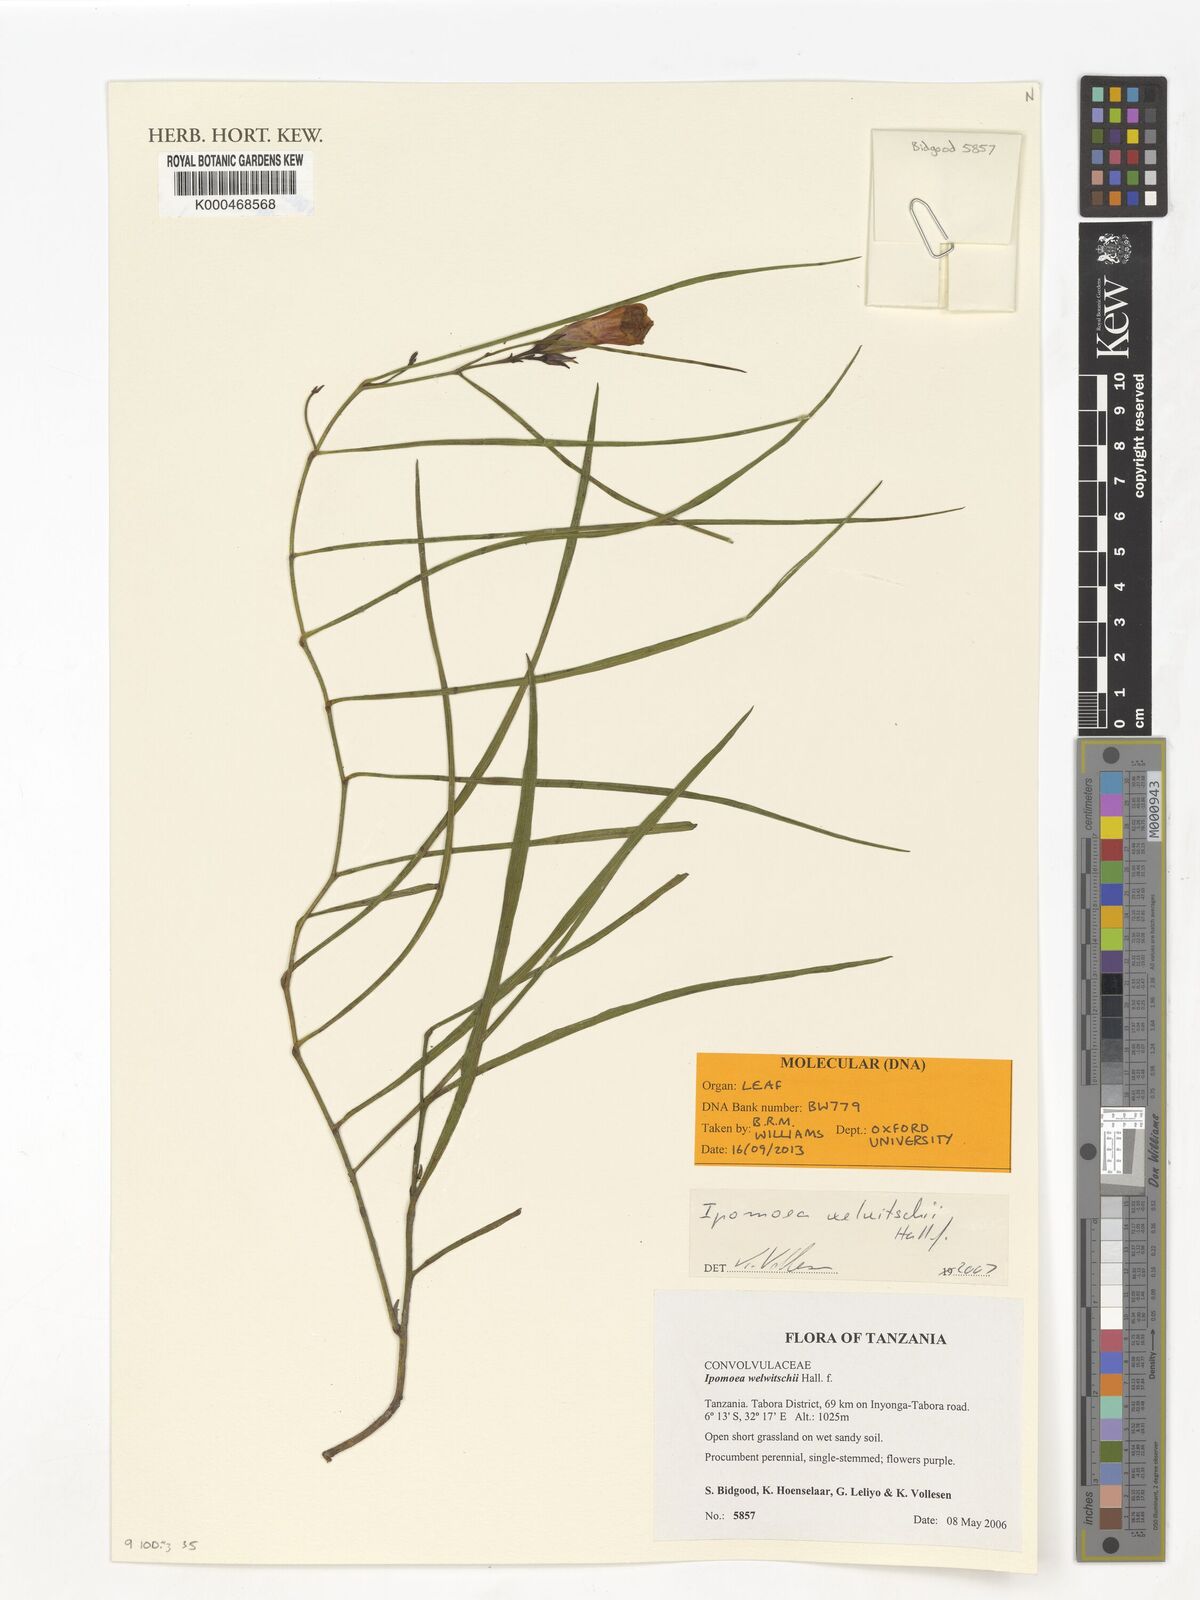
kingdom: Plantae
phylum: Tracheophyta
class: Magnoliopsida
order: Solanales
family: Convolvulaceae
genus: Ipomoea
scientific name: Ipomoea welwitschii
